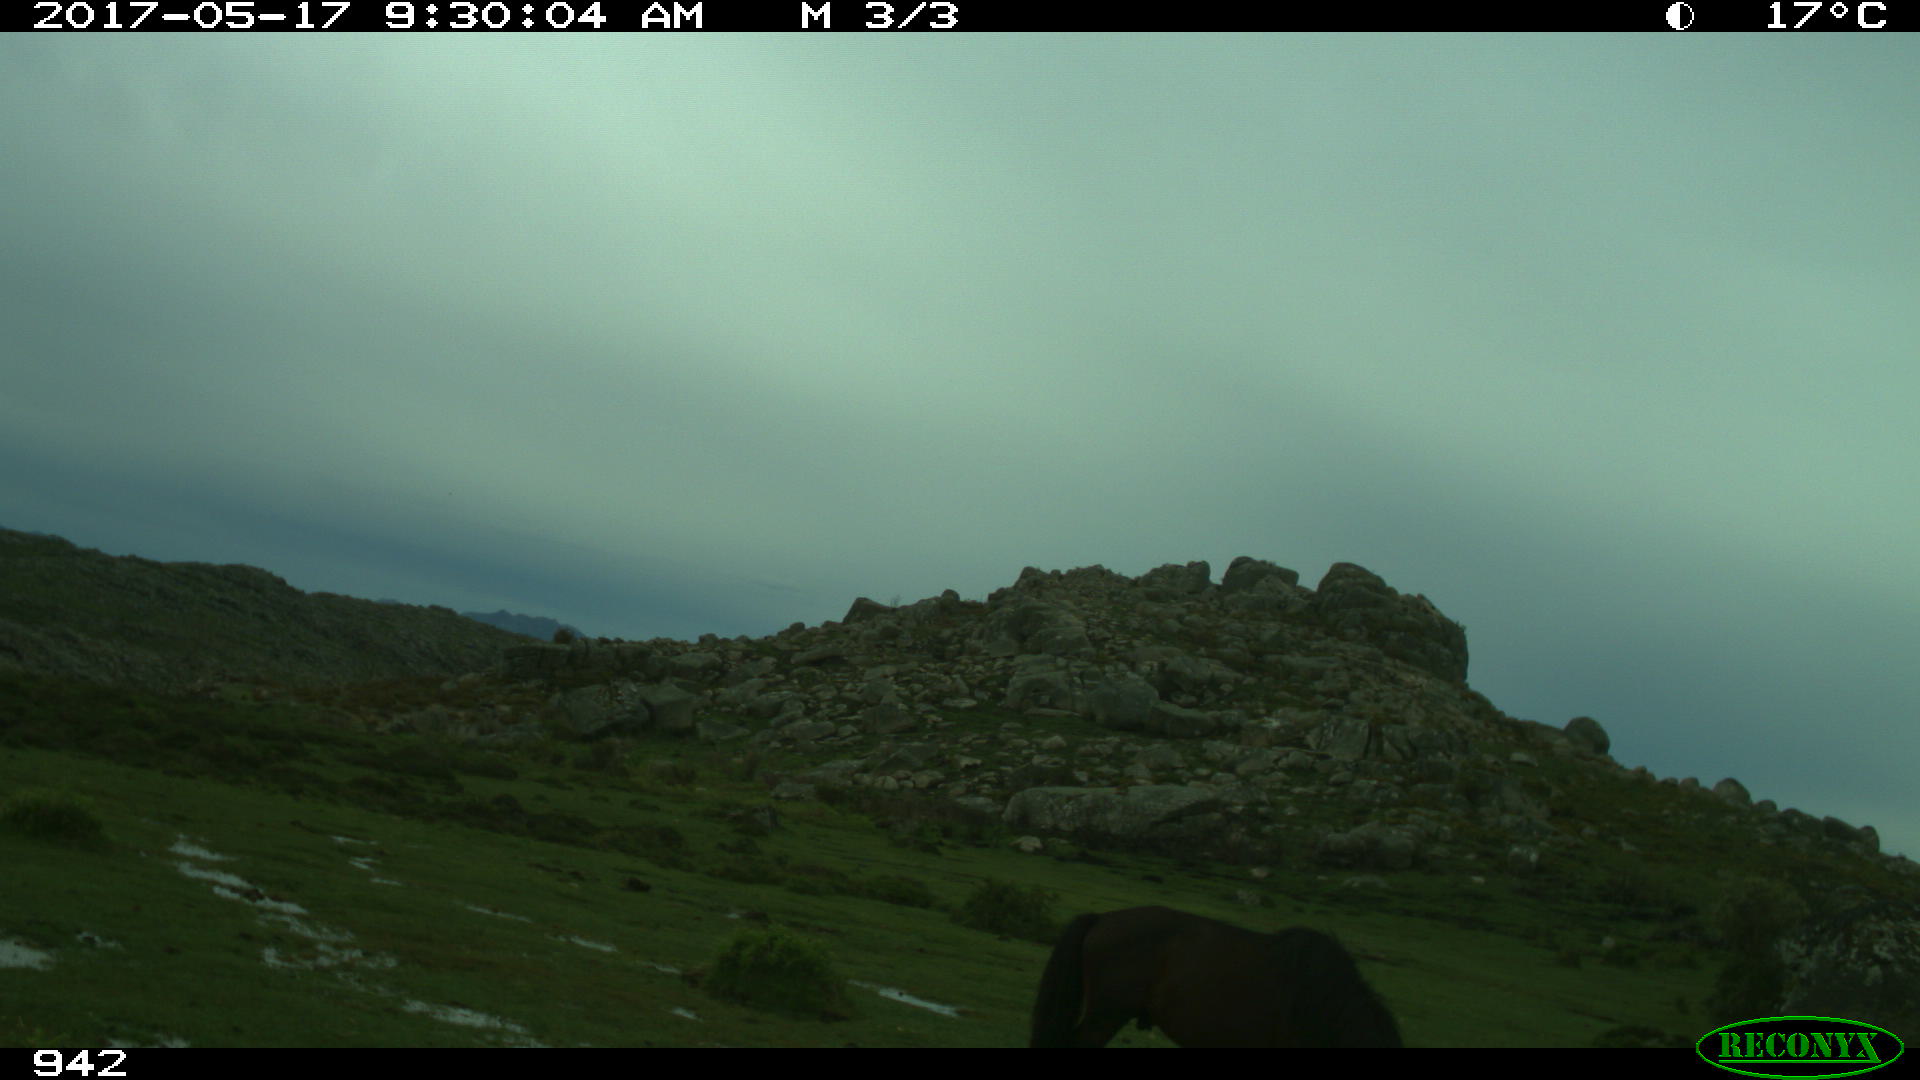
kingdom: Animalia
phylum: Chordata
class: Mammalia
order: Perissodactyla
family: Equidae
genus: Equus
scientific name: Equus caballus
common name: Horse
